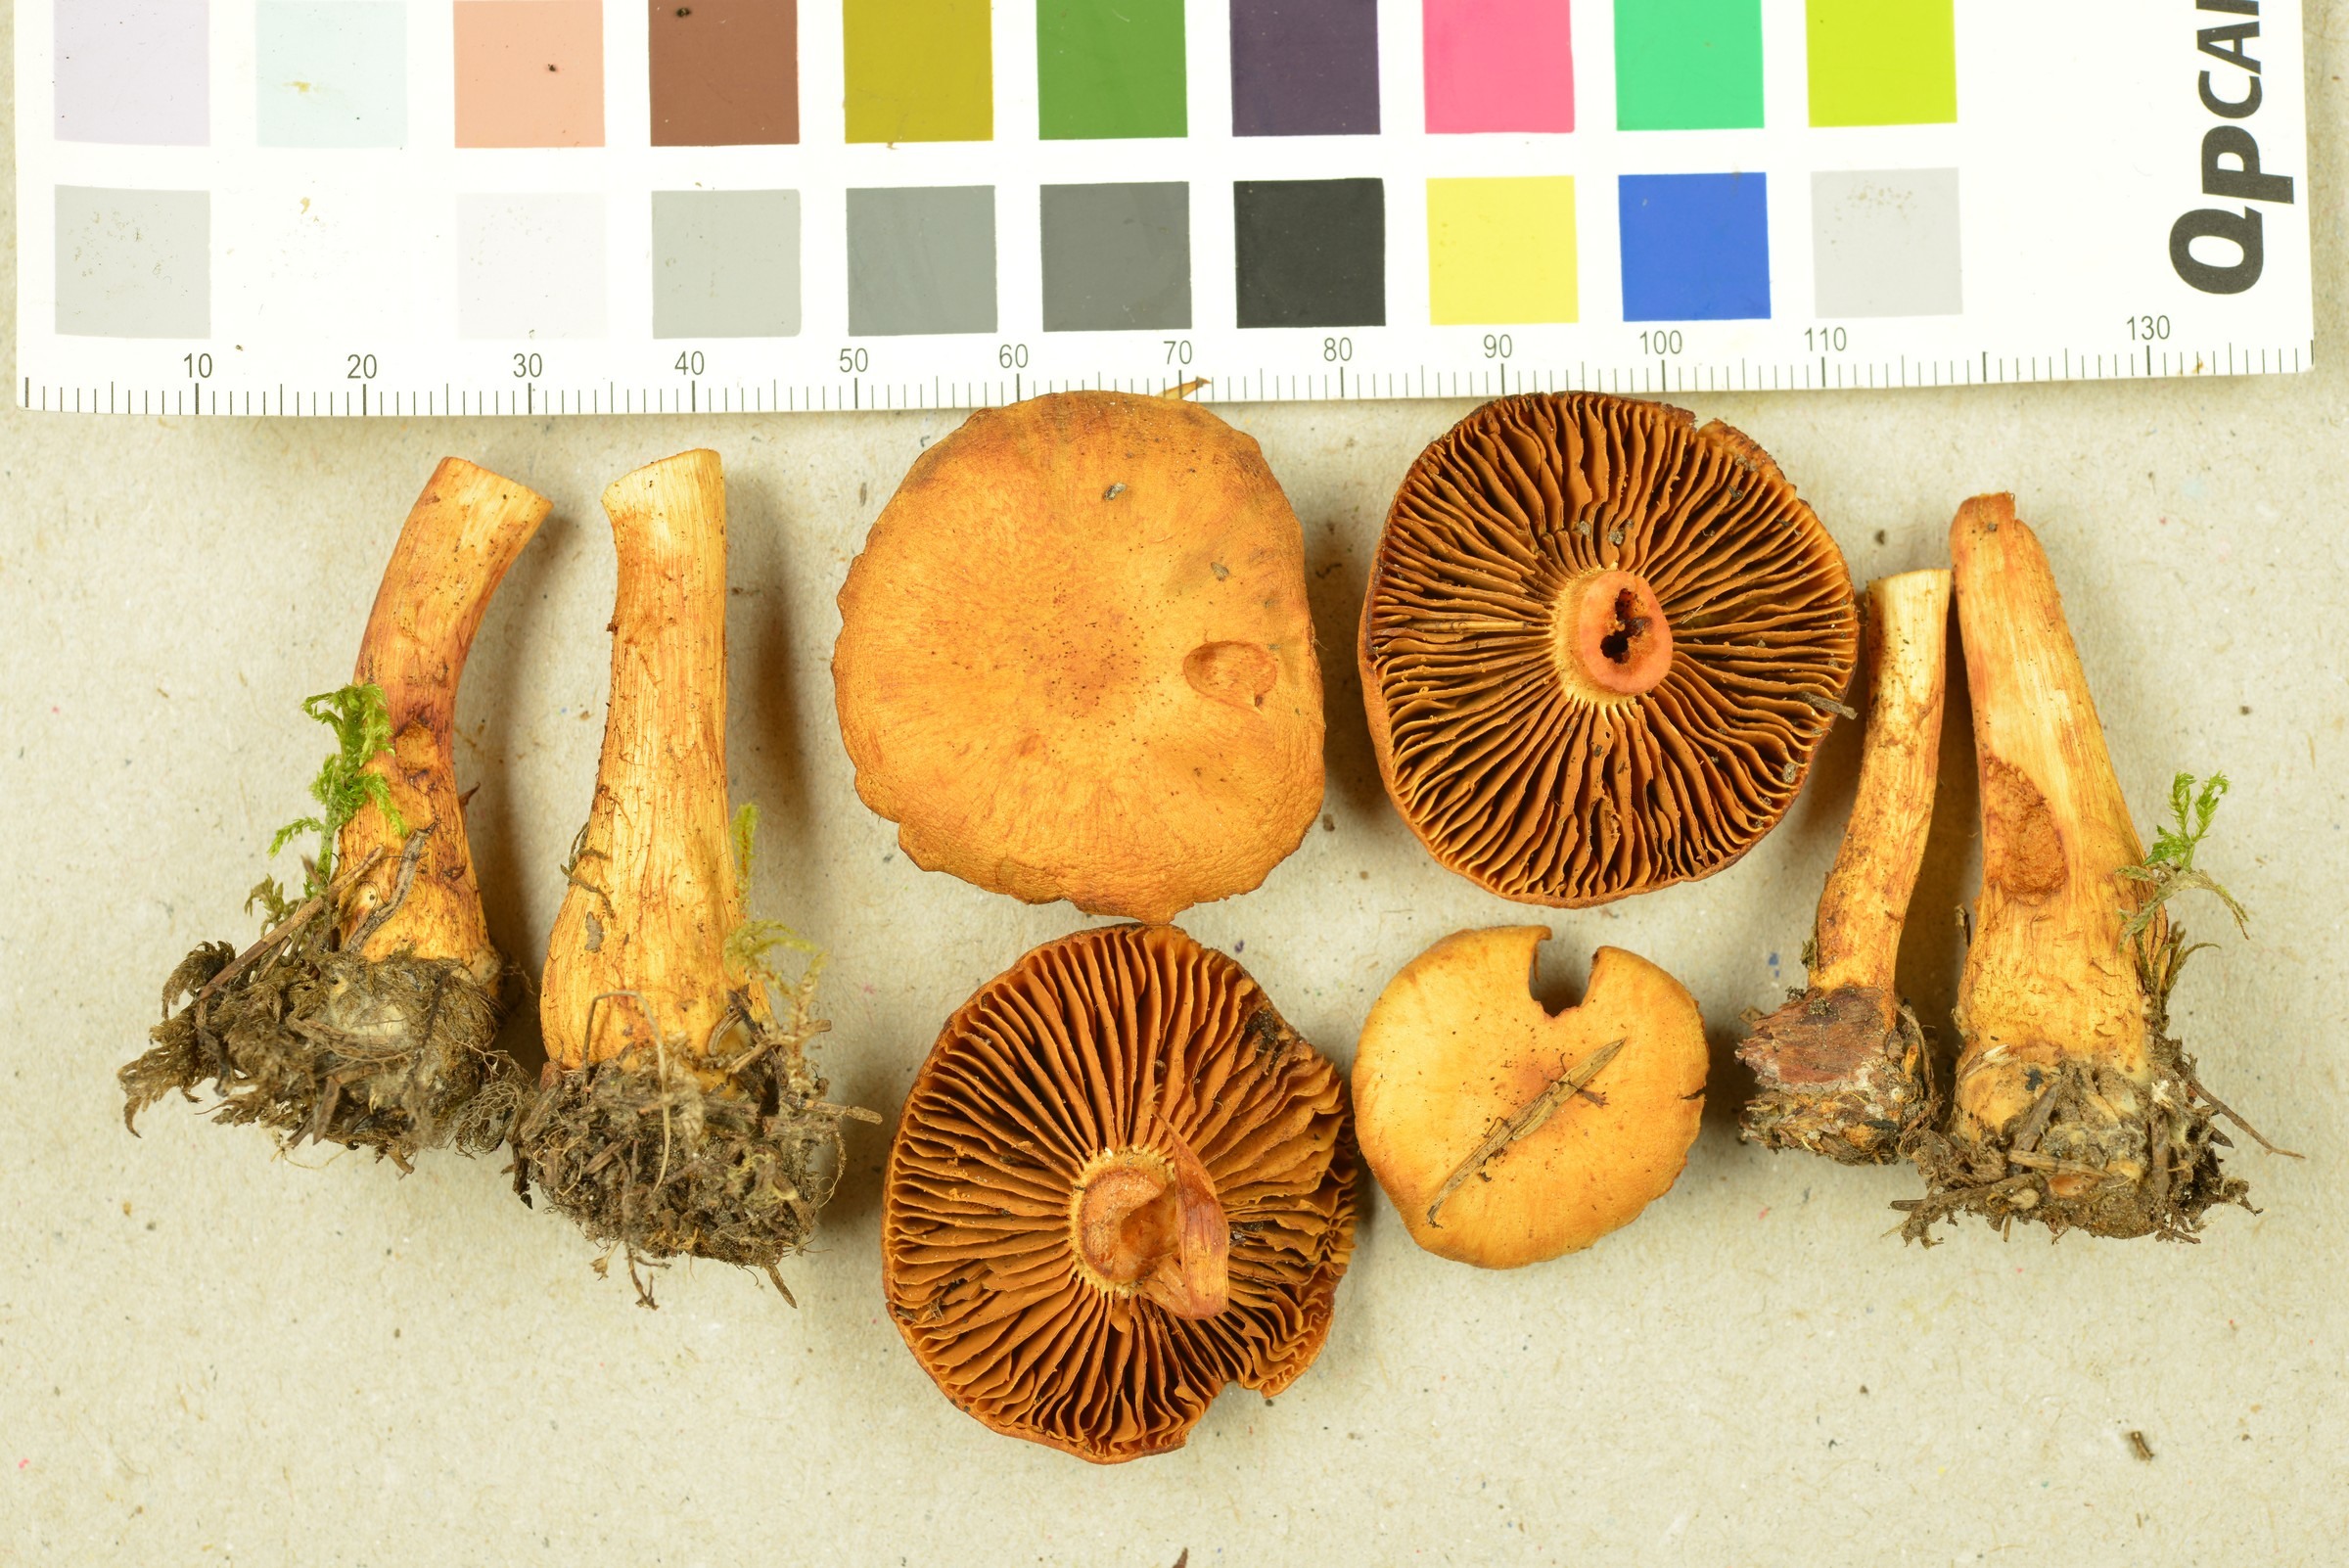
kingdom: Fungi
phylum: Basidiomycota
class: Agaricomycetes
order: Agaricales
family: Cortinariaceae
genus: Aureonarius
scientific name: Aureonarius callisteus
